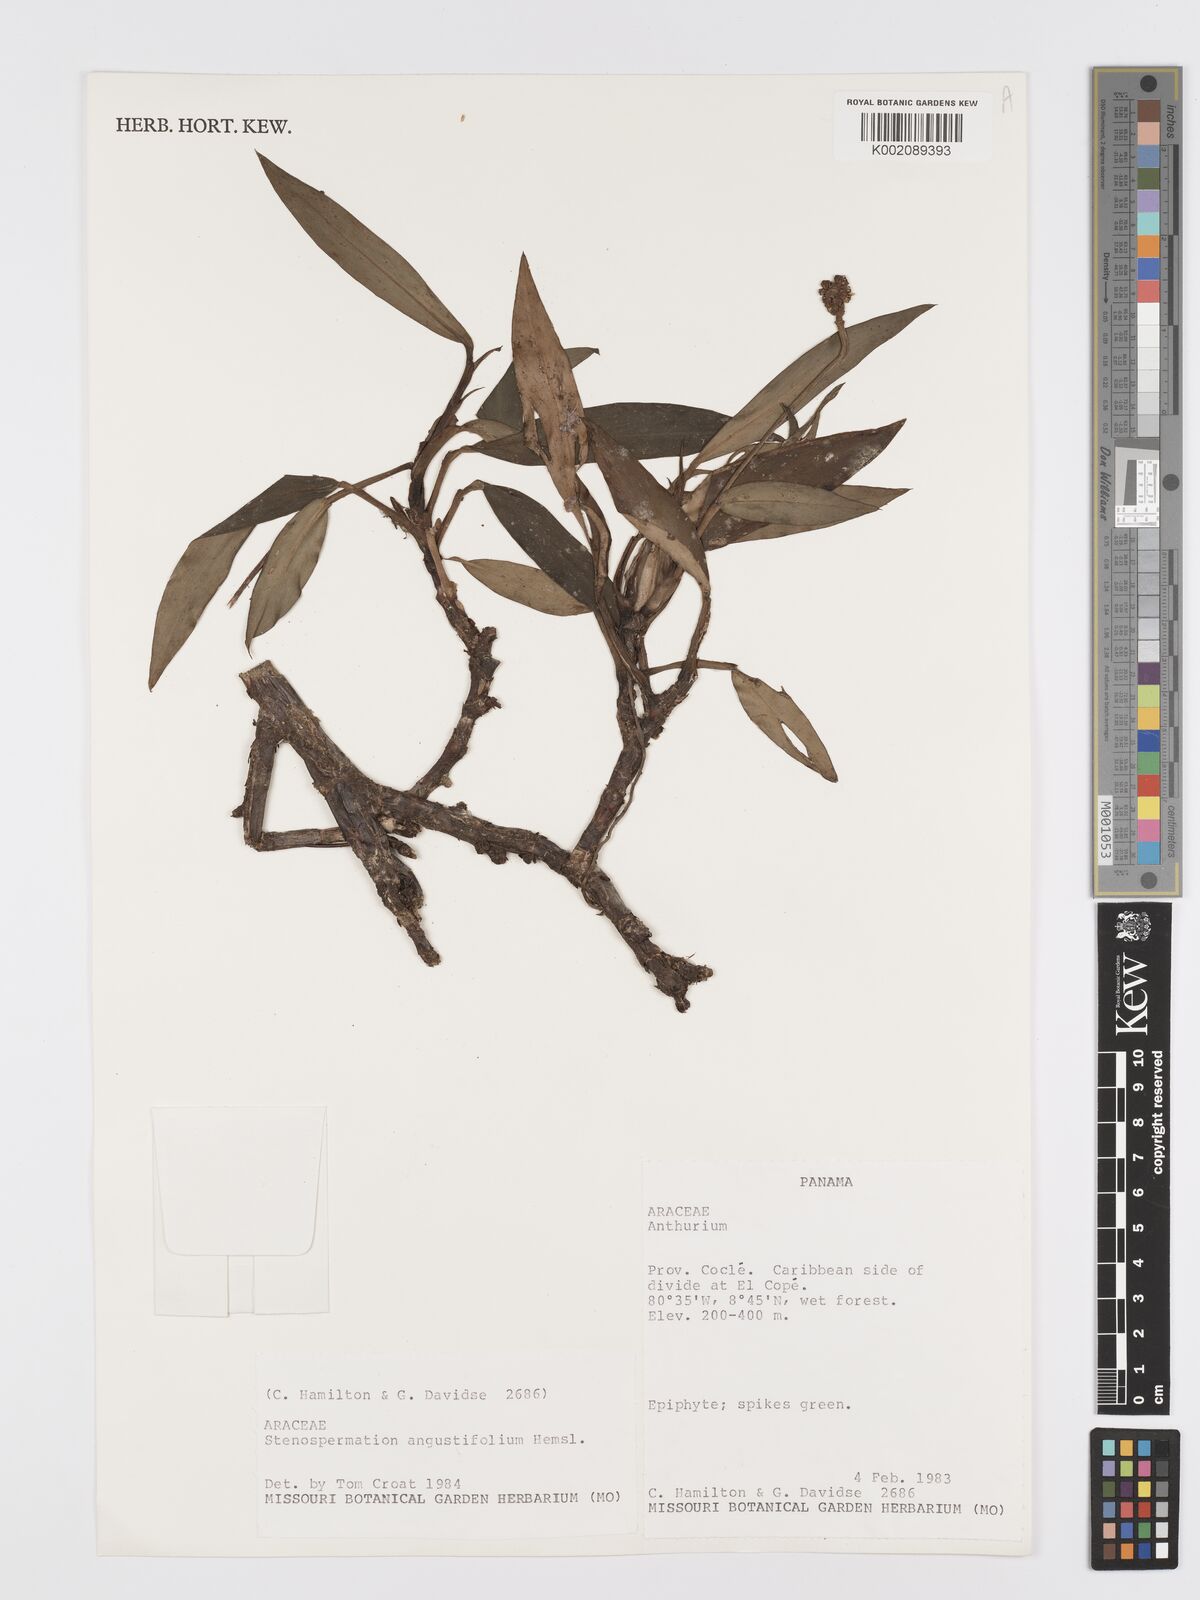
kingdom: Plantae
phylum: Tracheophyta
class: Liliopsida
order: Alismatales
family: Araceae
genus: Stenospermation
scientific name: Stenospermation angustifolium
